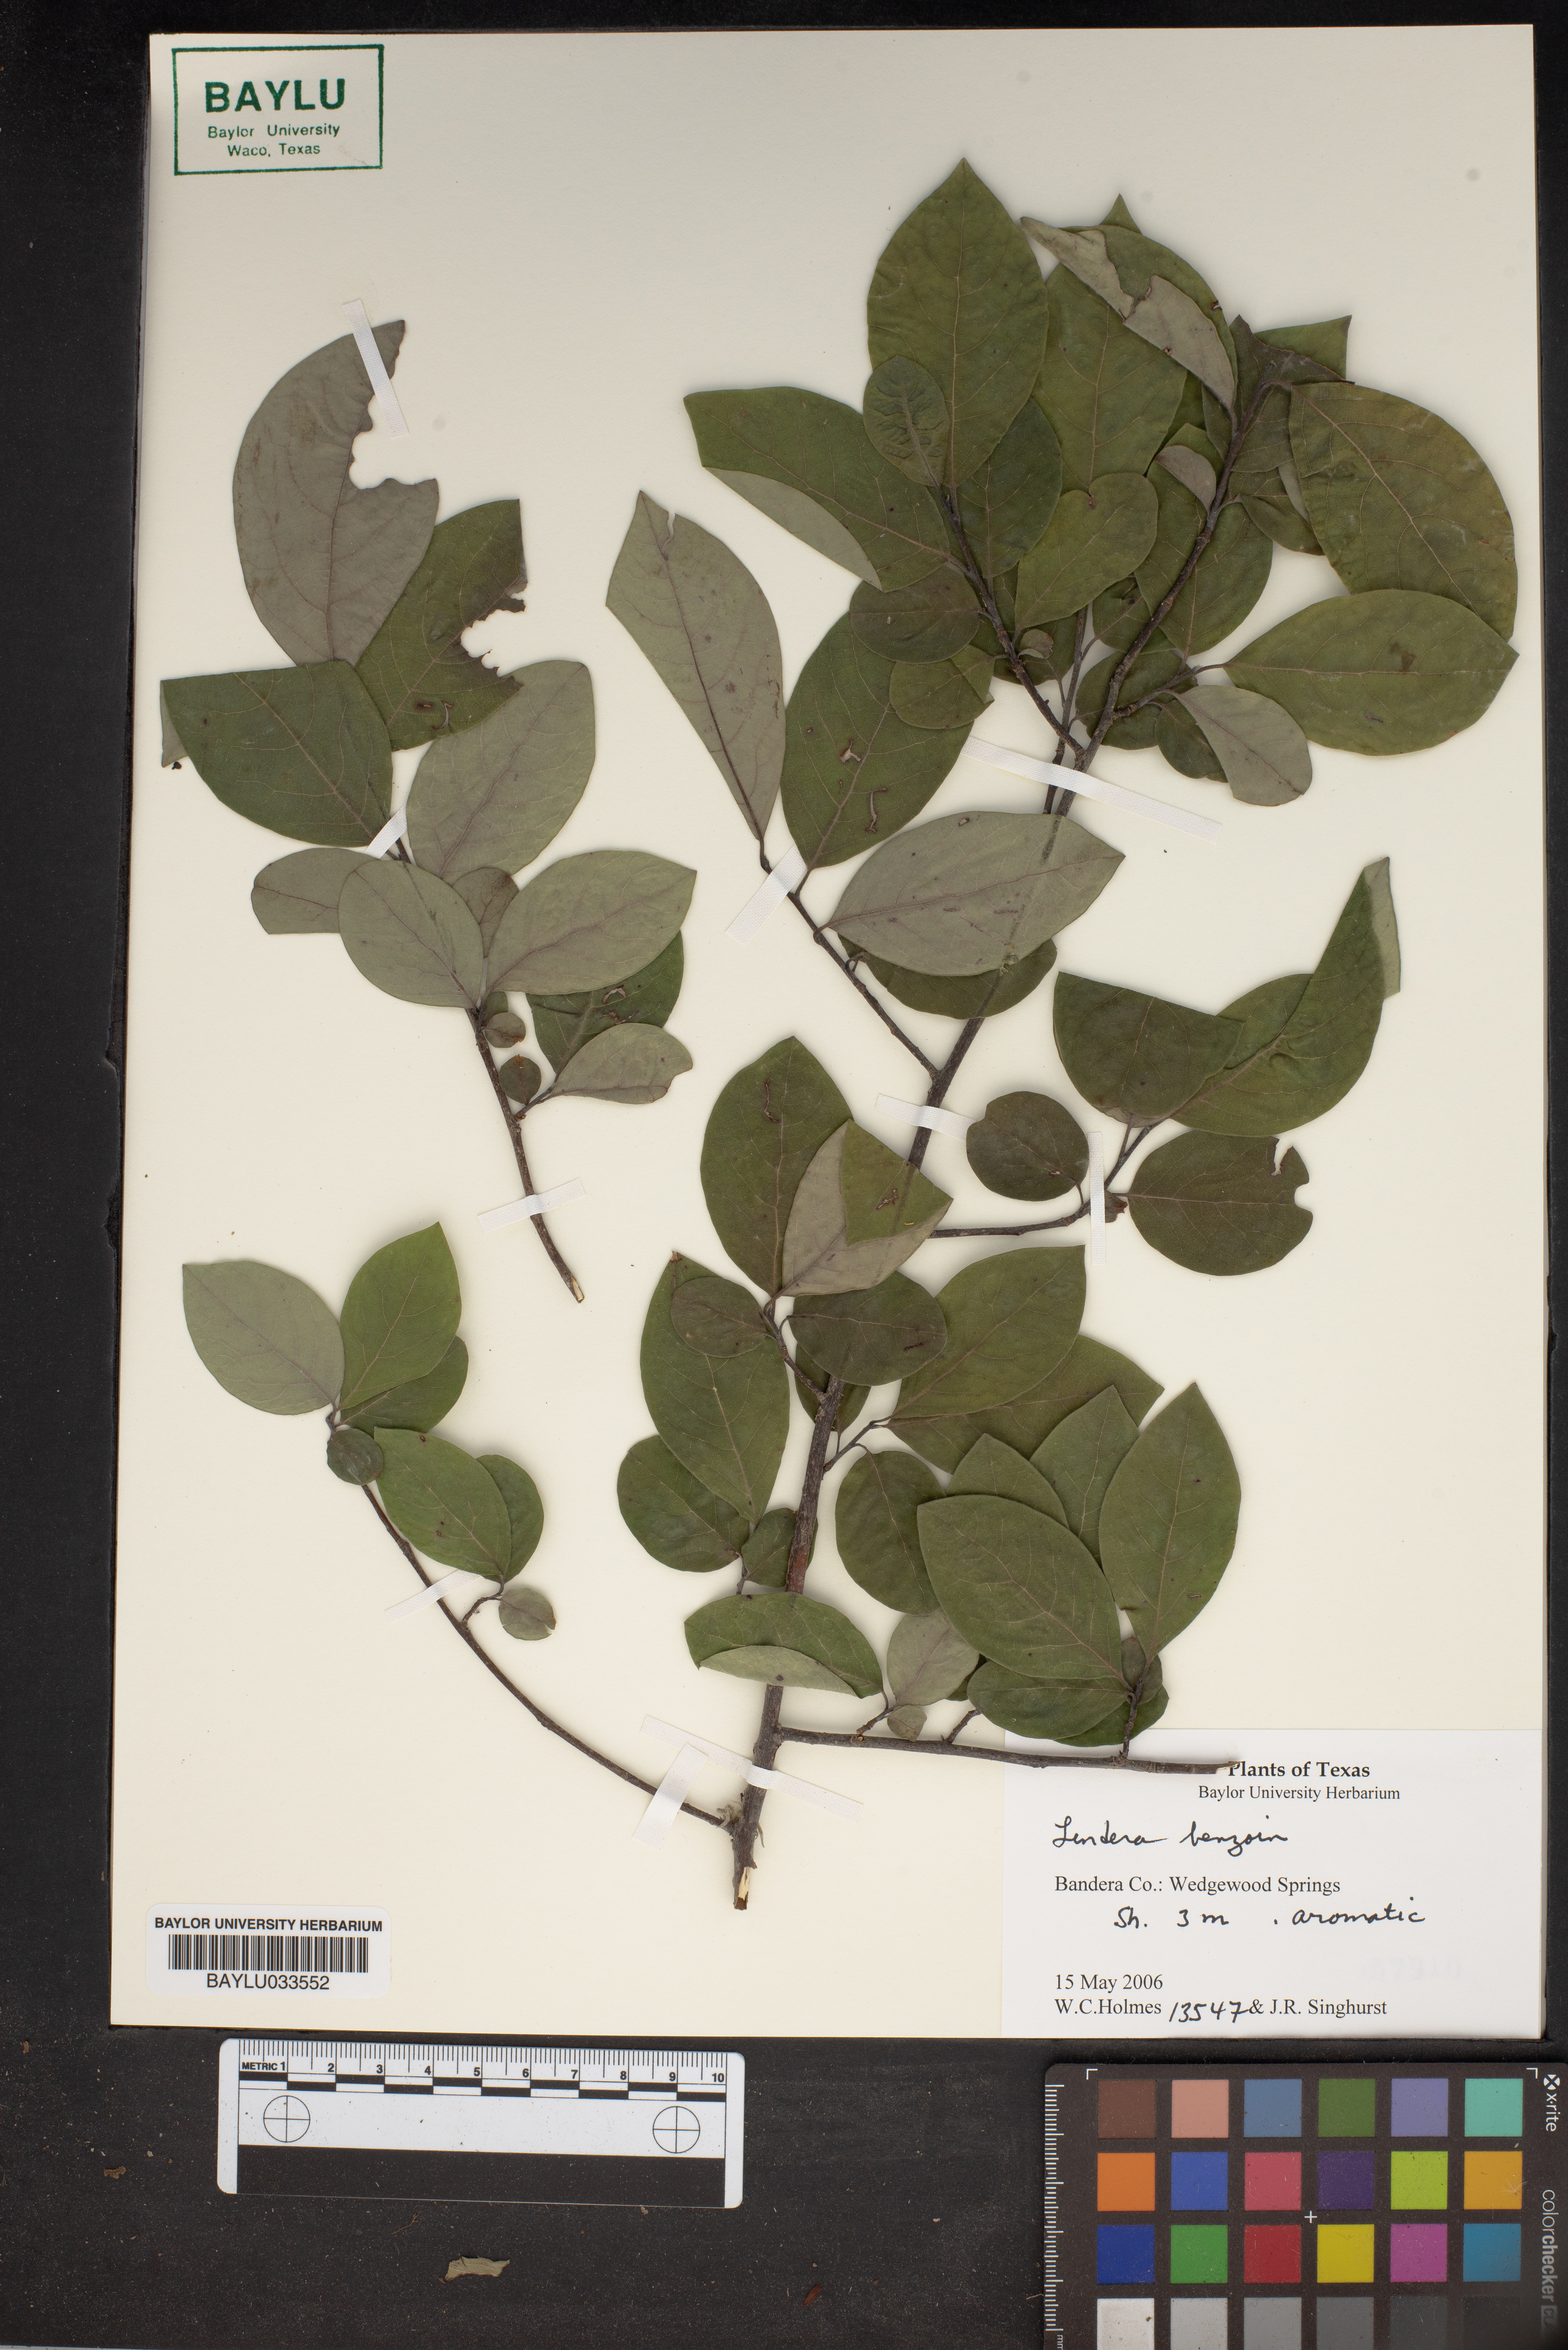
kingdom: Plantae
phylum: Tracheophyta
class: Magnoliopsida
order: Laurales
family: Lauraceae
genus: Lindera
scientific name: Lindera benzoin
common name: Spicebush
